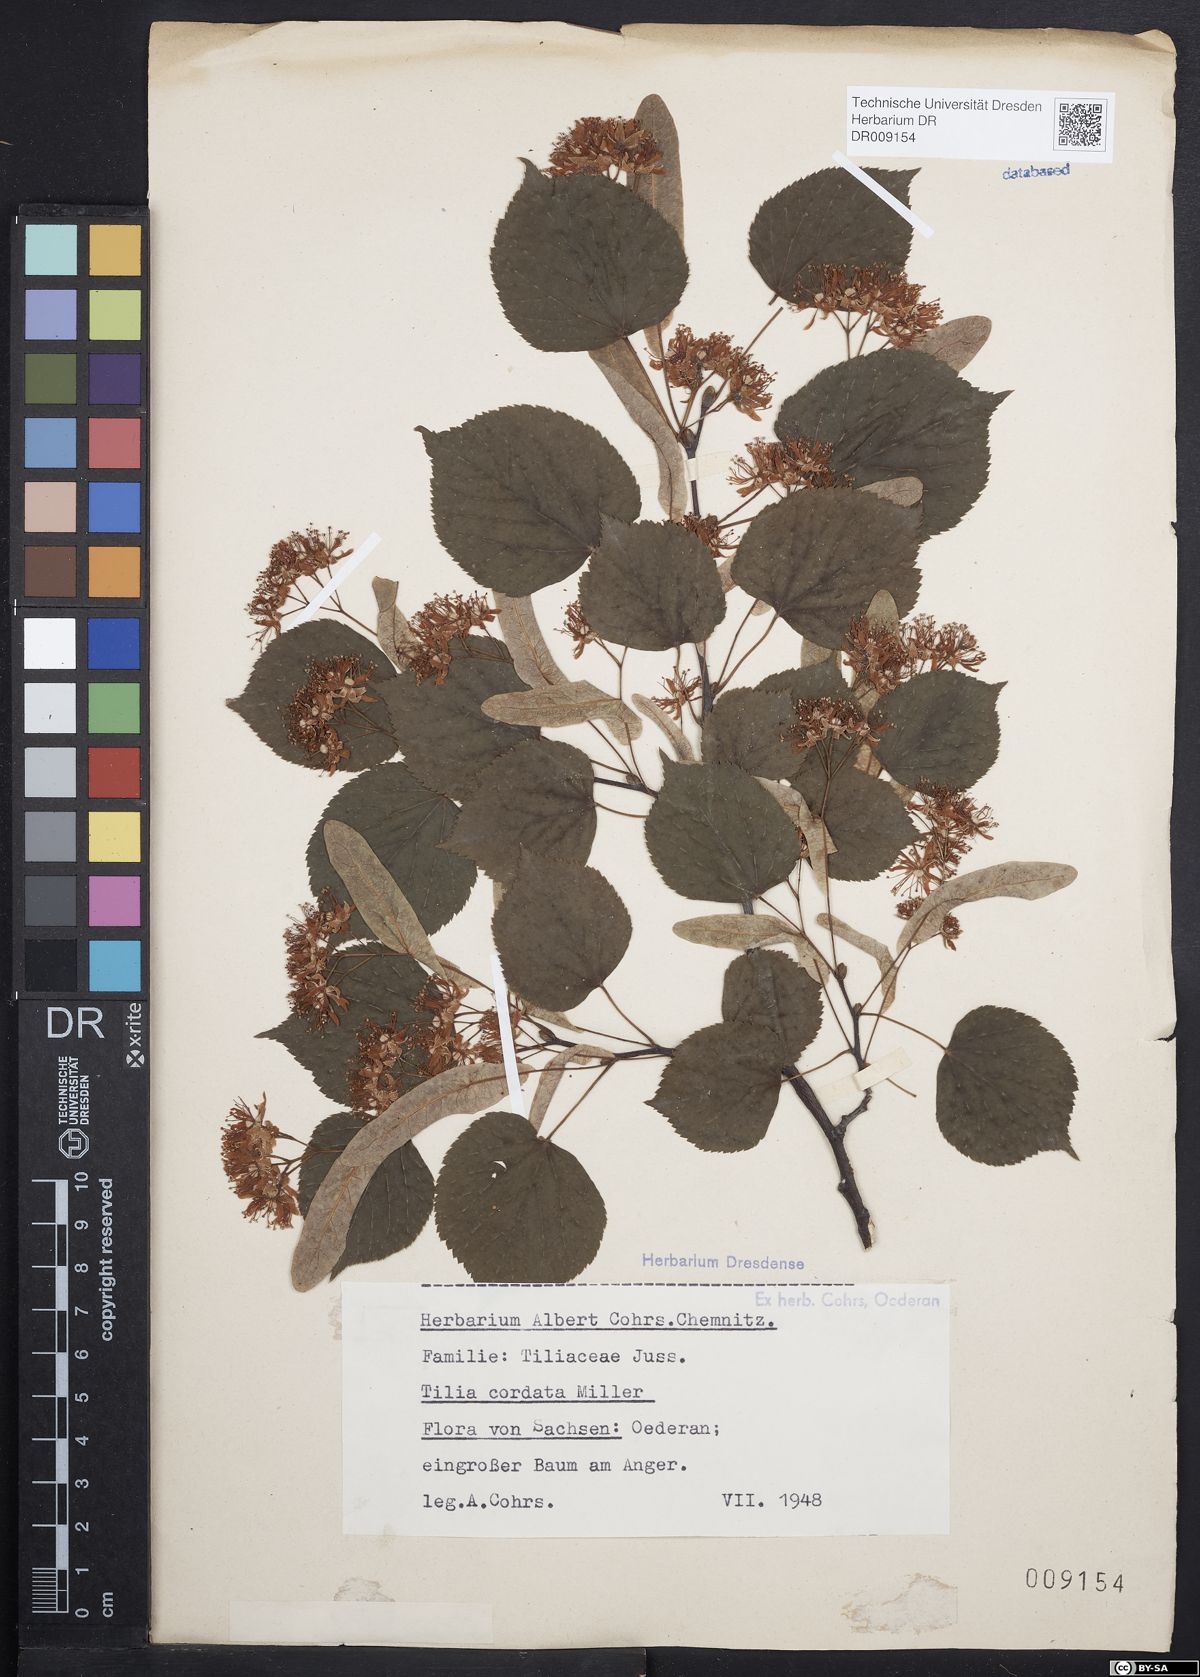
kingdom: Plantae
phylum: Tracheophyta
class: Magnoliopsida
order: Malvales
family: Malvaceae
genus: Tilia
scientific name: Tilia cordata
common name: Small-leaved lime
